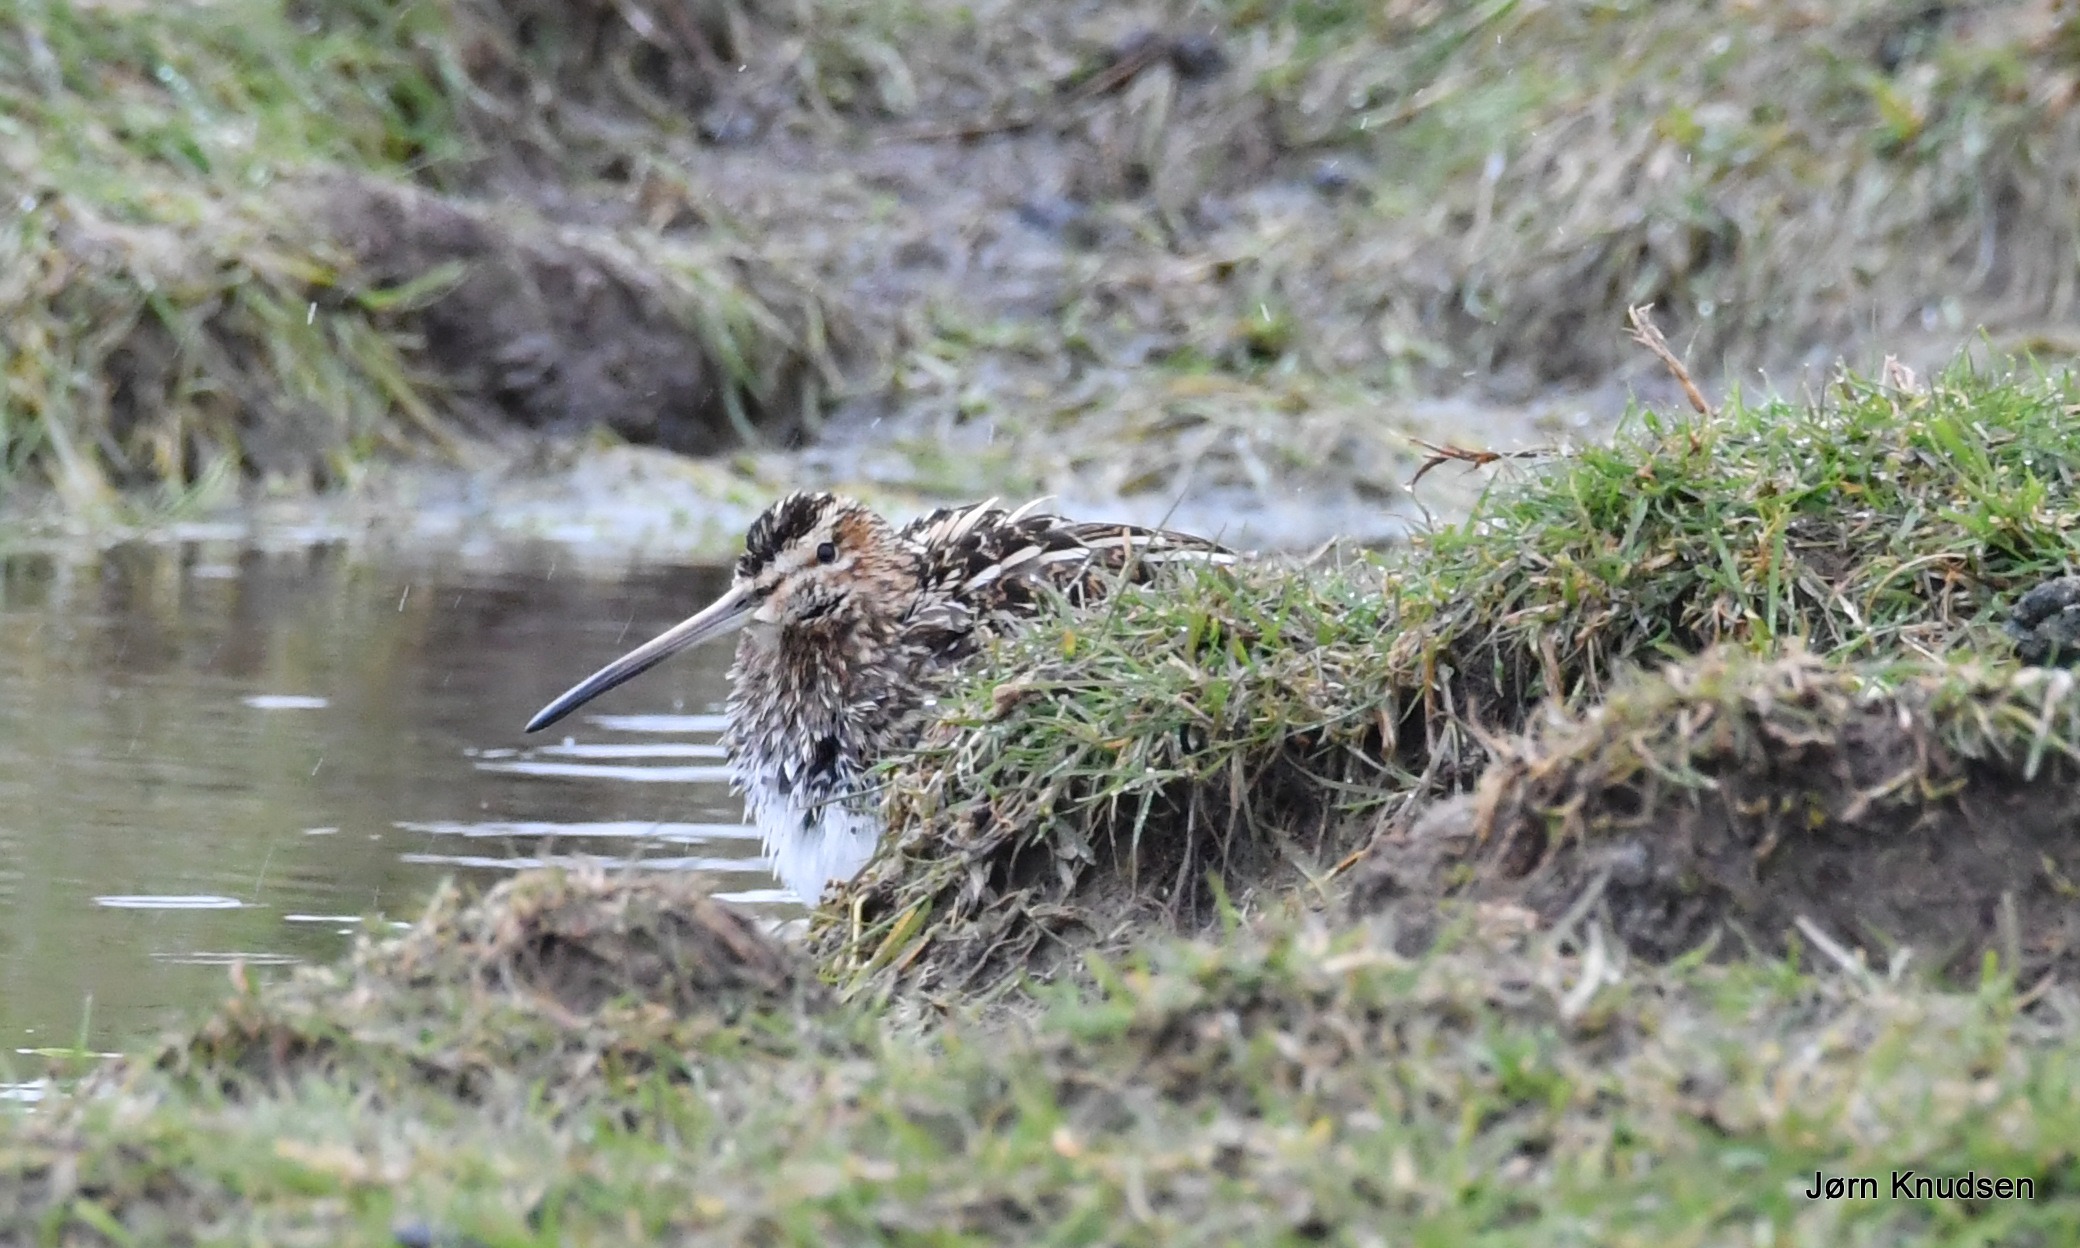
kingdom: Animalia
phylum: Chordata
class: Aves
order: Charadriiformes
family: Scolopacidae
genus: Gallinago
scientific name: Gallinago gallinago
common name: Dobbeltbekkasin
